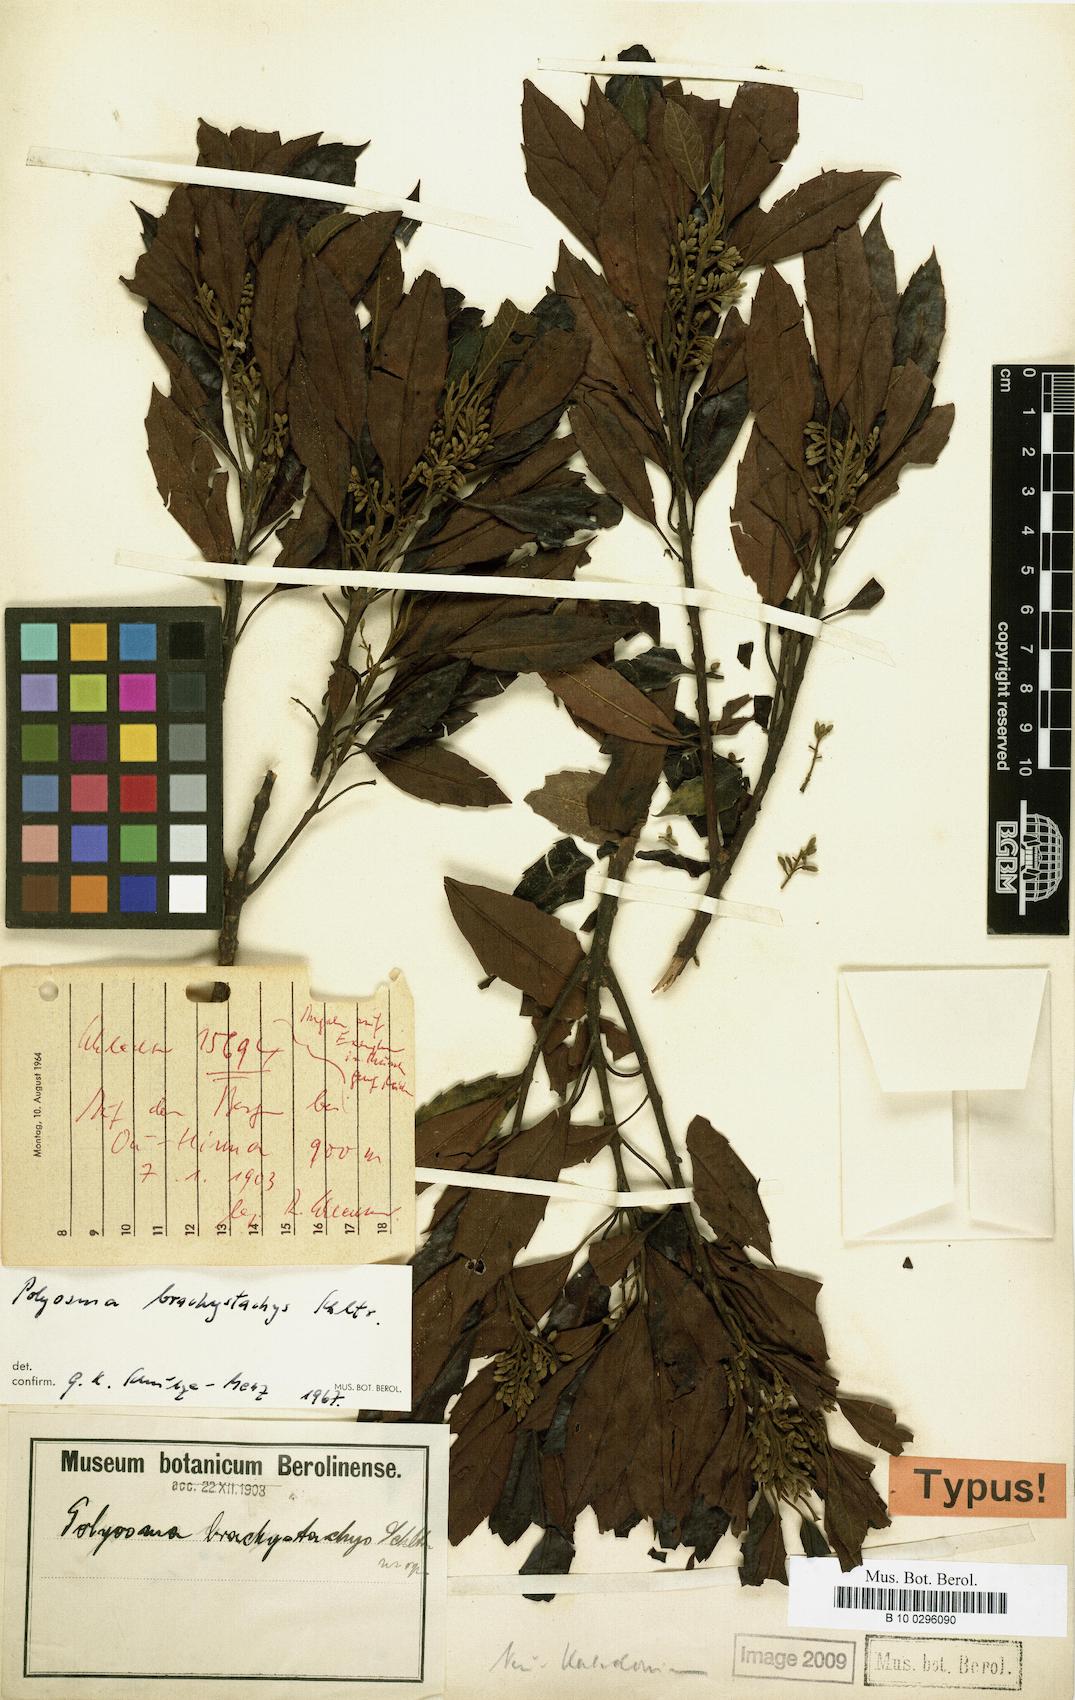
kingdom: Plantae
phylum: Tracheophyta
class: Magnoliopsida
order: Escalloniales
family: Escalloniaceae
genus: Polyosma
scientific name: Polyosma brachystachys
